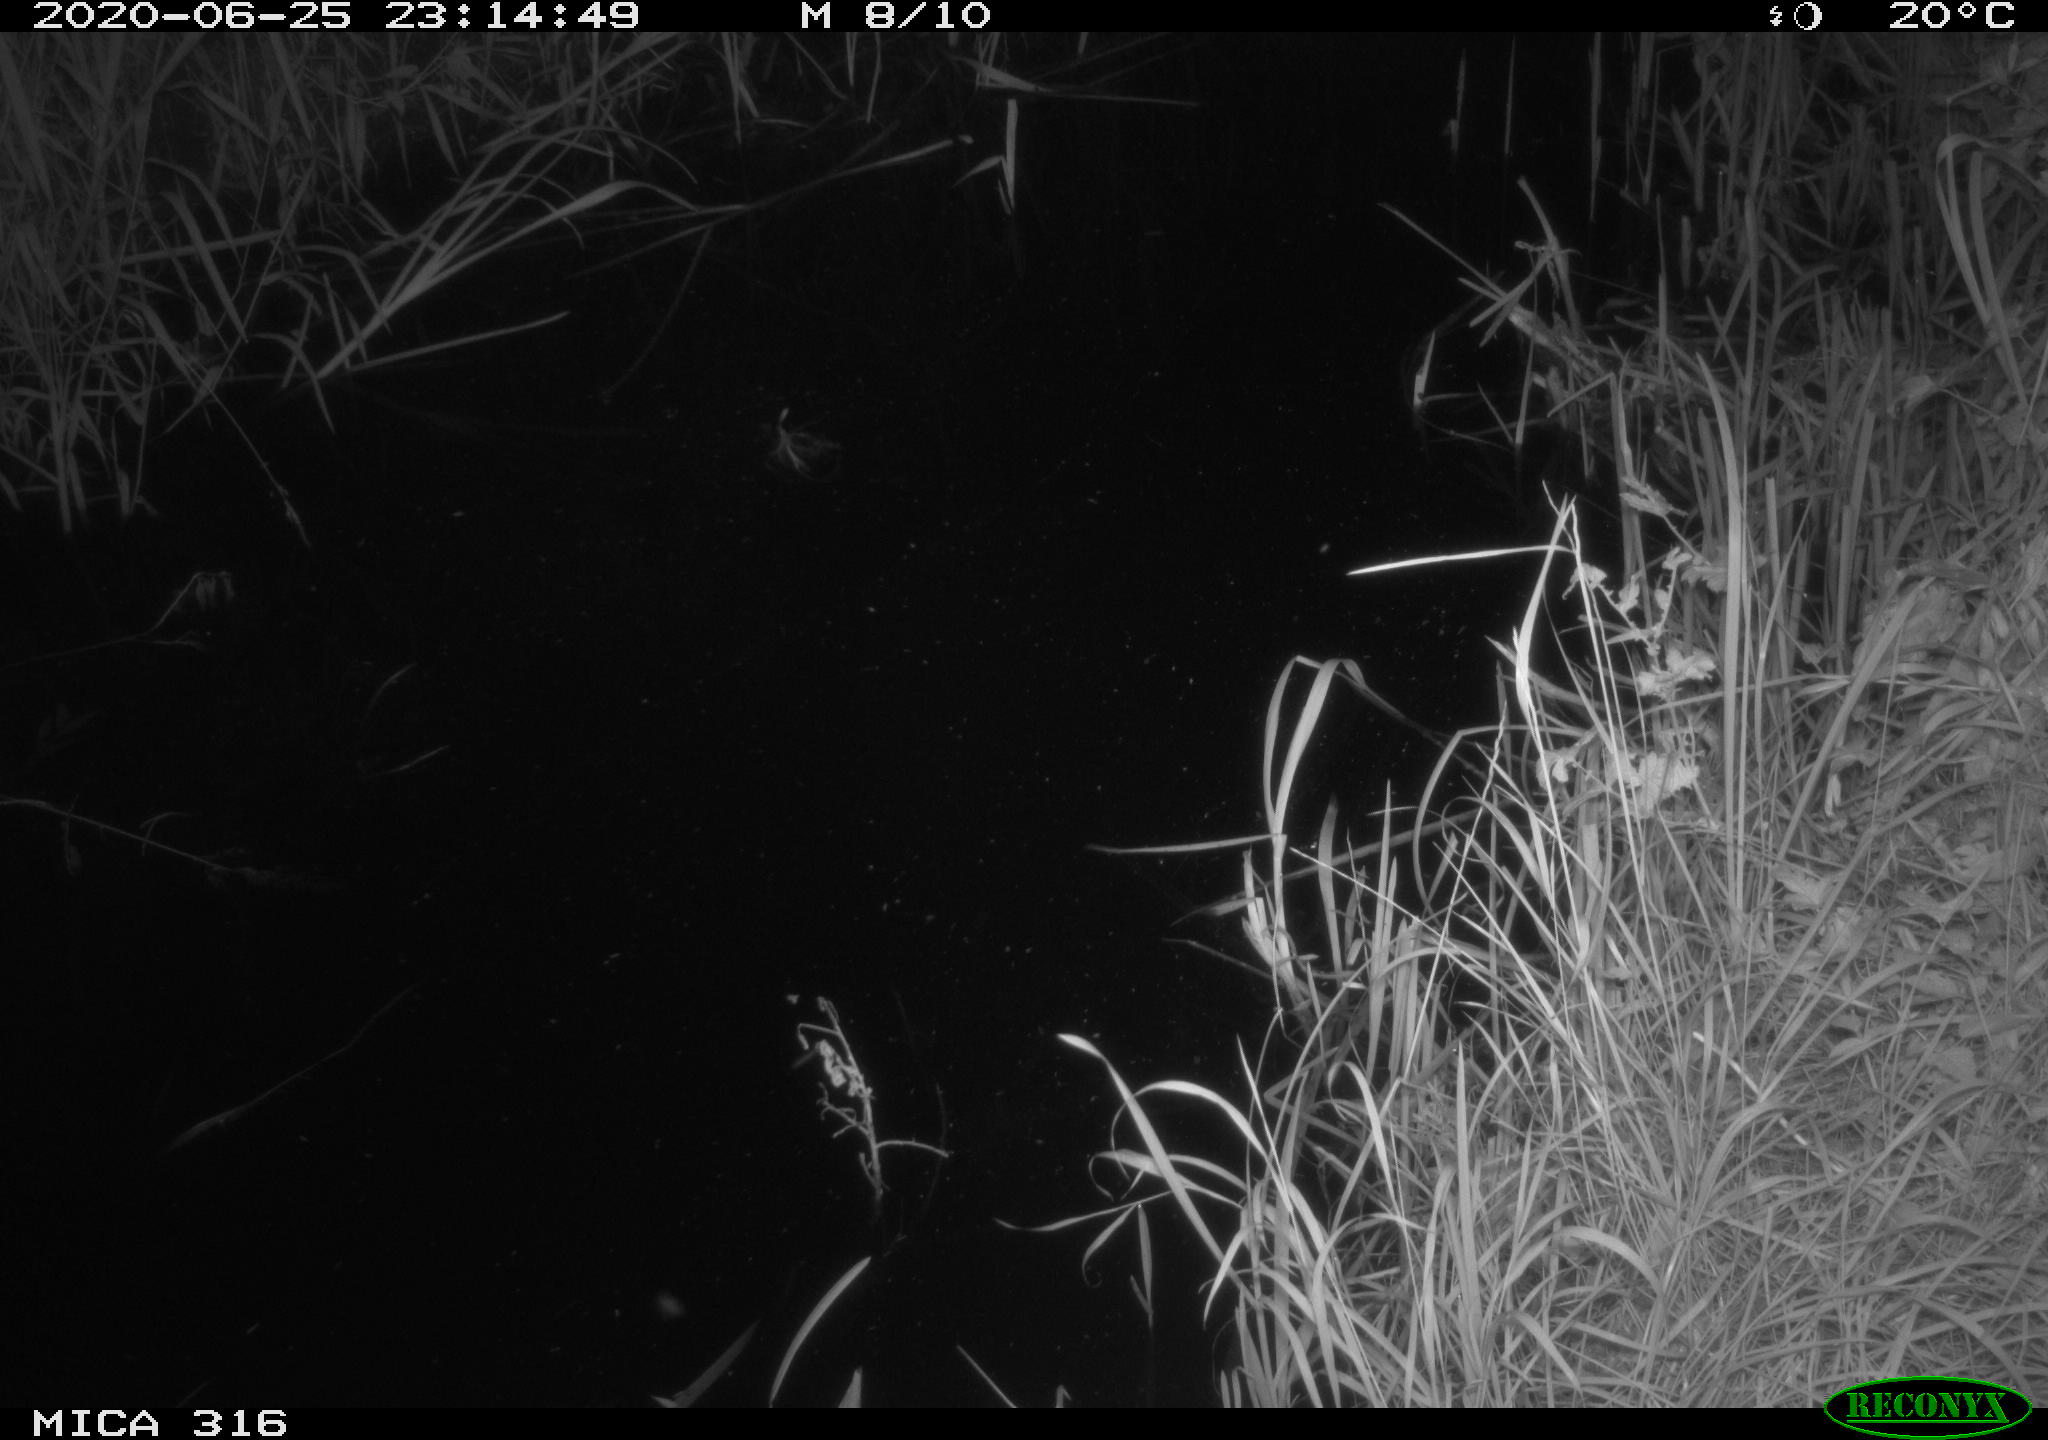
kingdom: Animalia
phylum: Chordata
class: Aves
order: Anseriformes
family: Anatidae
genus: Anas
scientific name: Anas platyrhynchos
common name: Mallard
